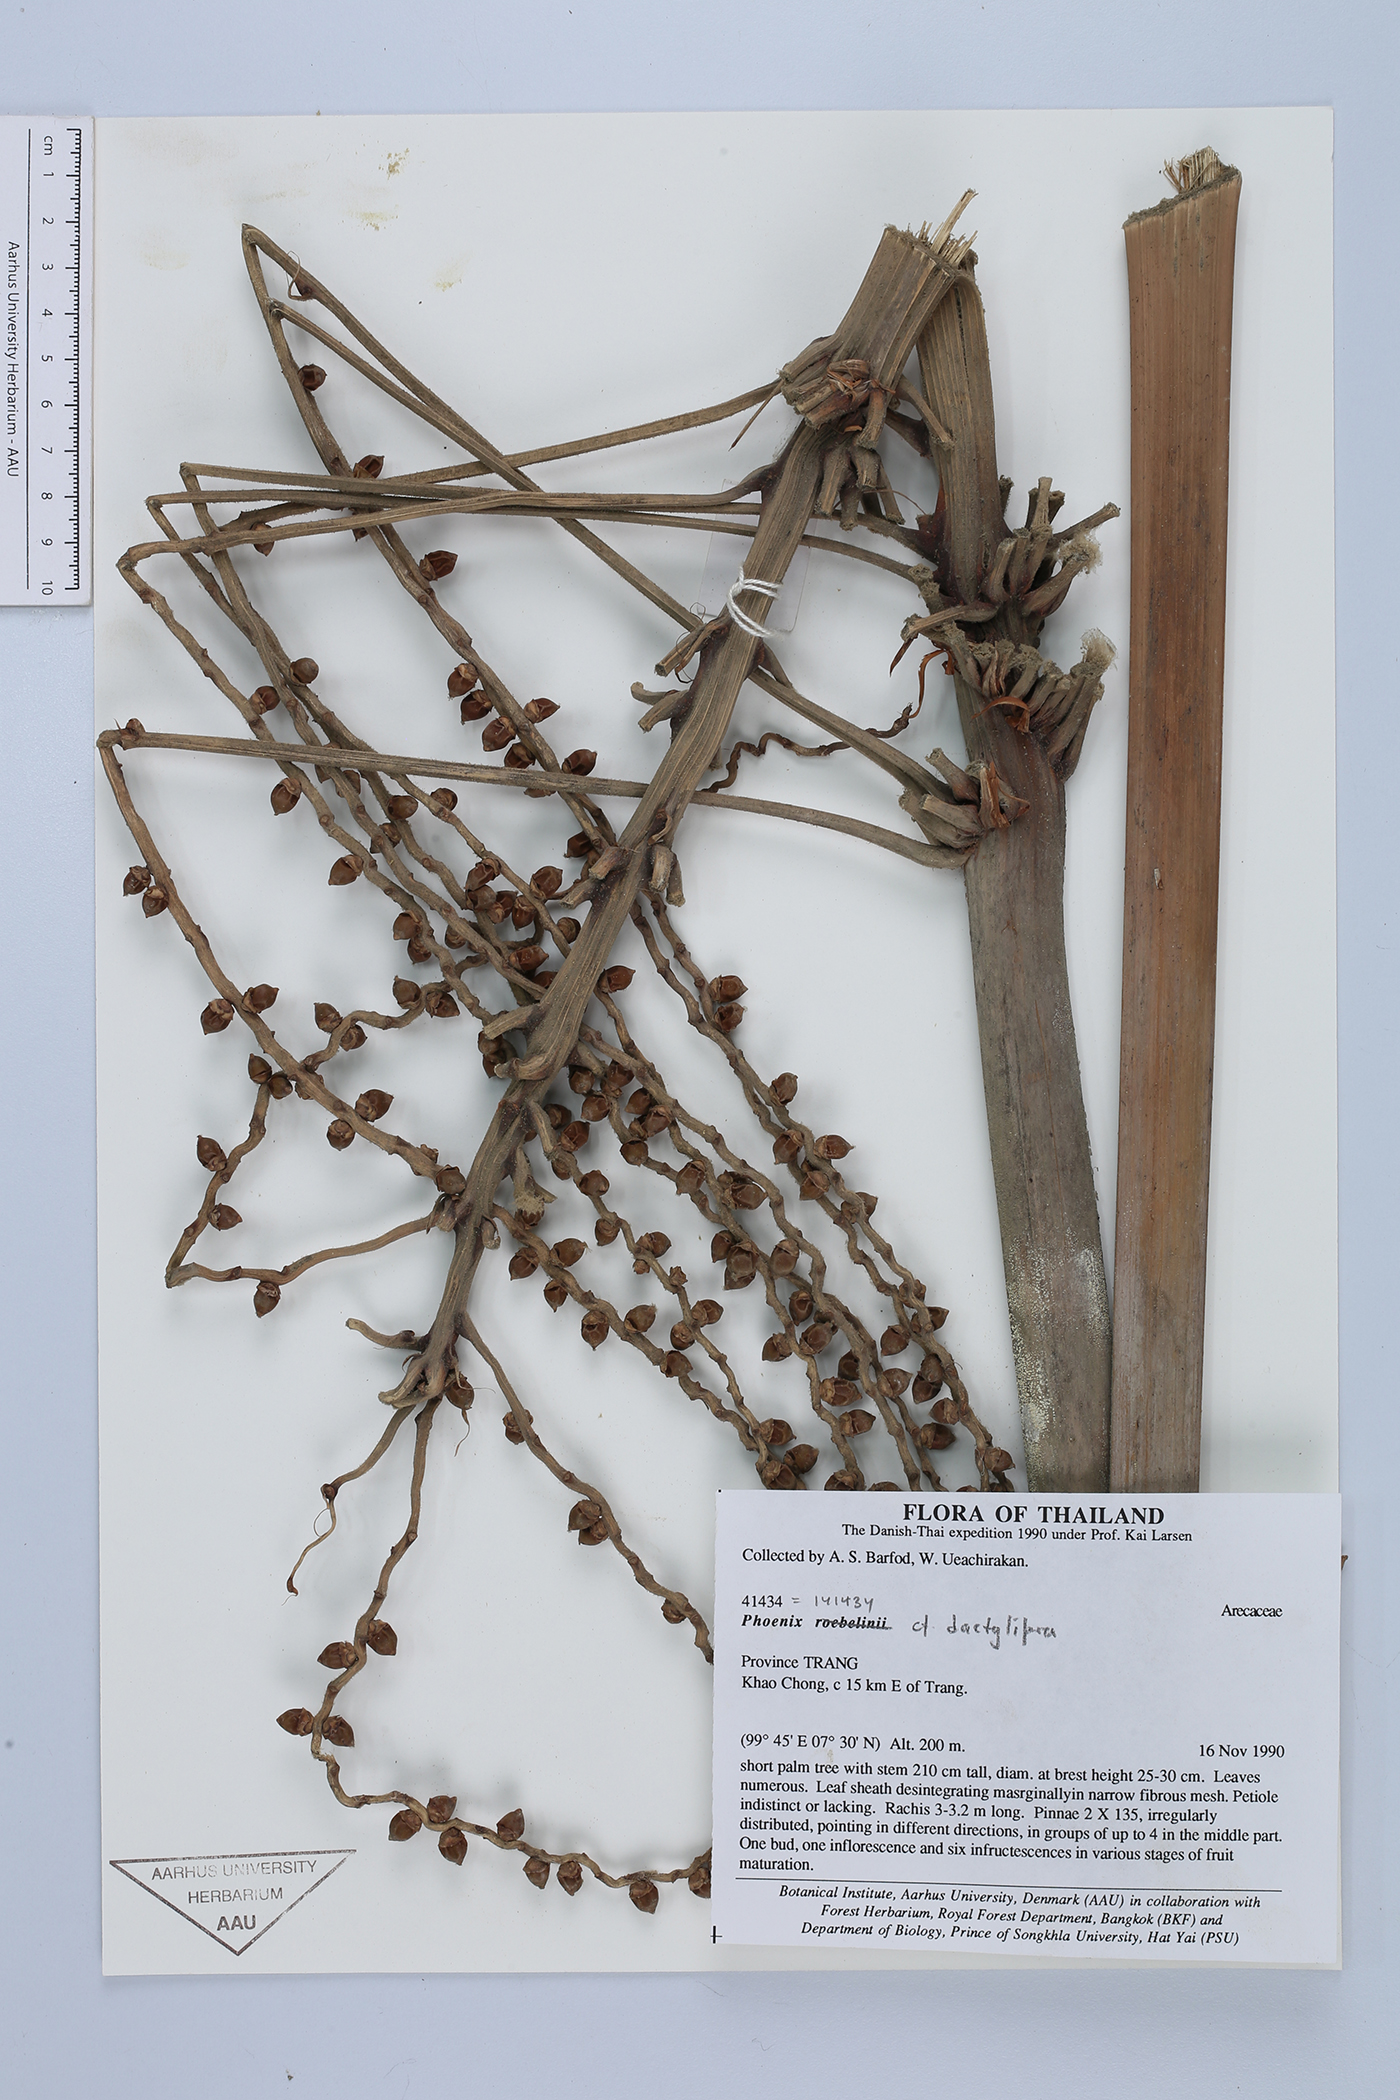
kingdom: Plantae
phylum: Tracheophyta
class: Liliopsida
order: Arecales
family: Arecaceae
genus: Phoenix
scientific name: Phoenix dactylifera
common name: Date palm
